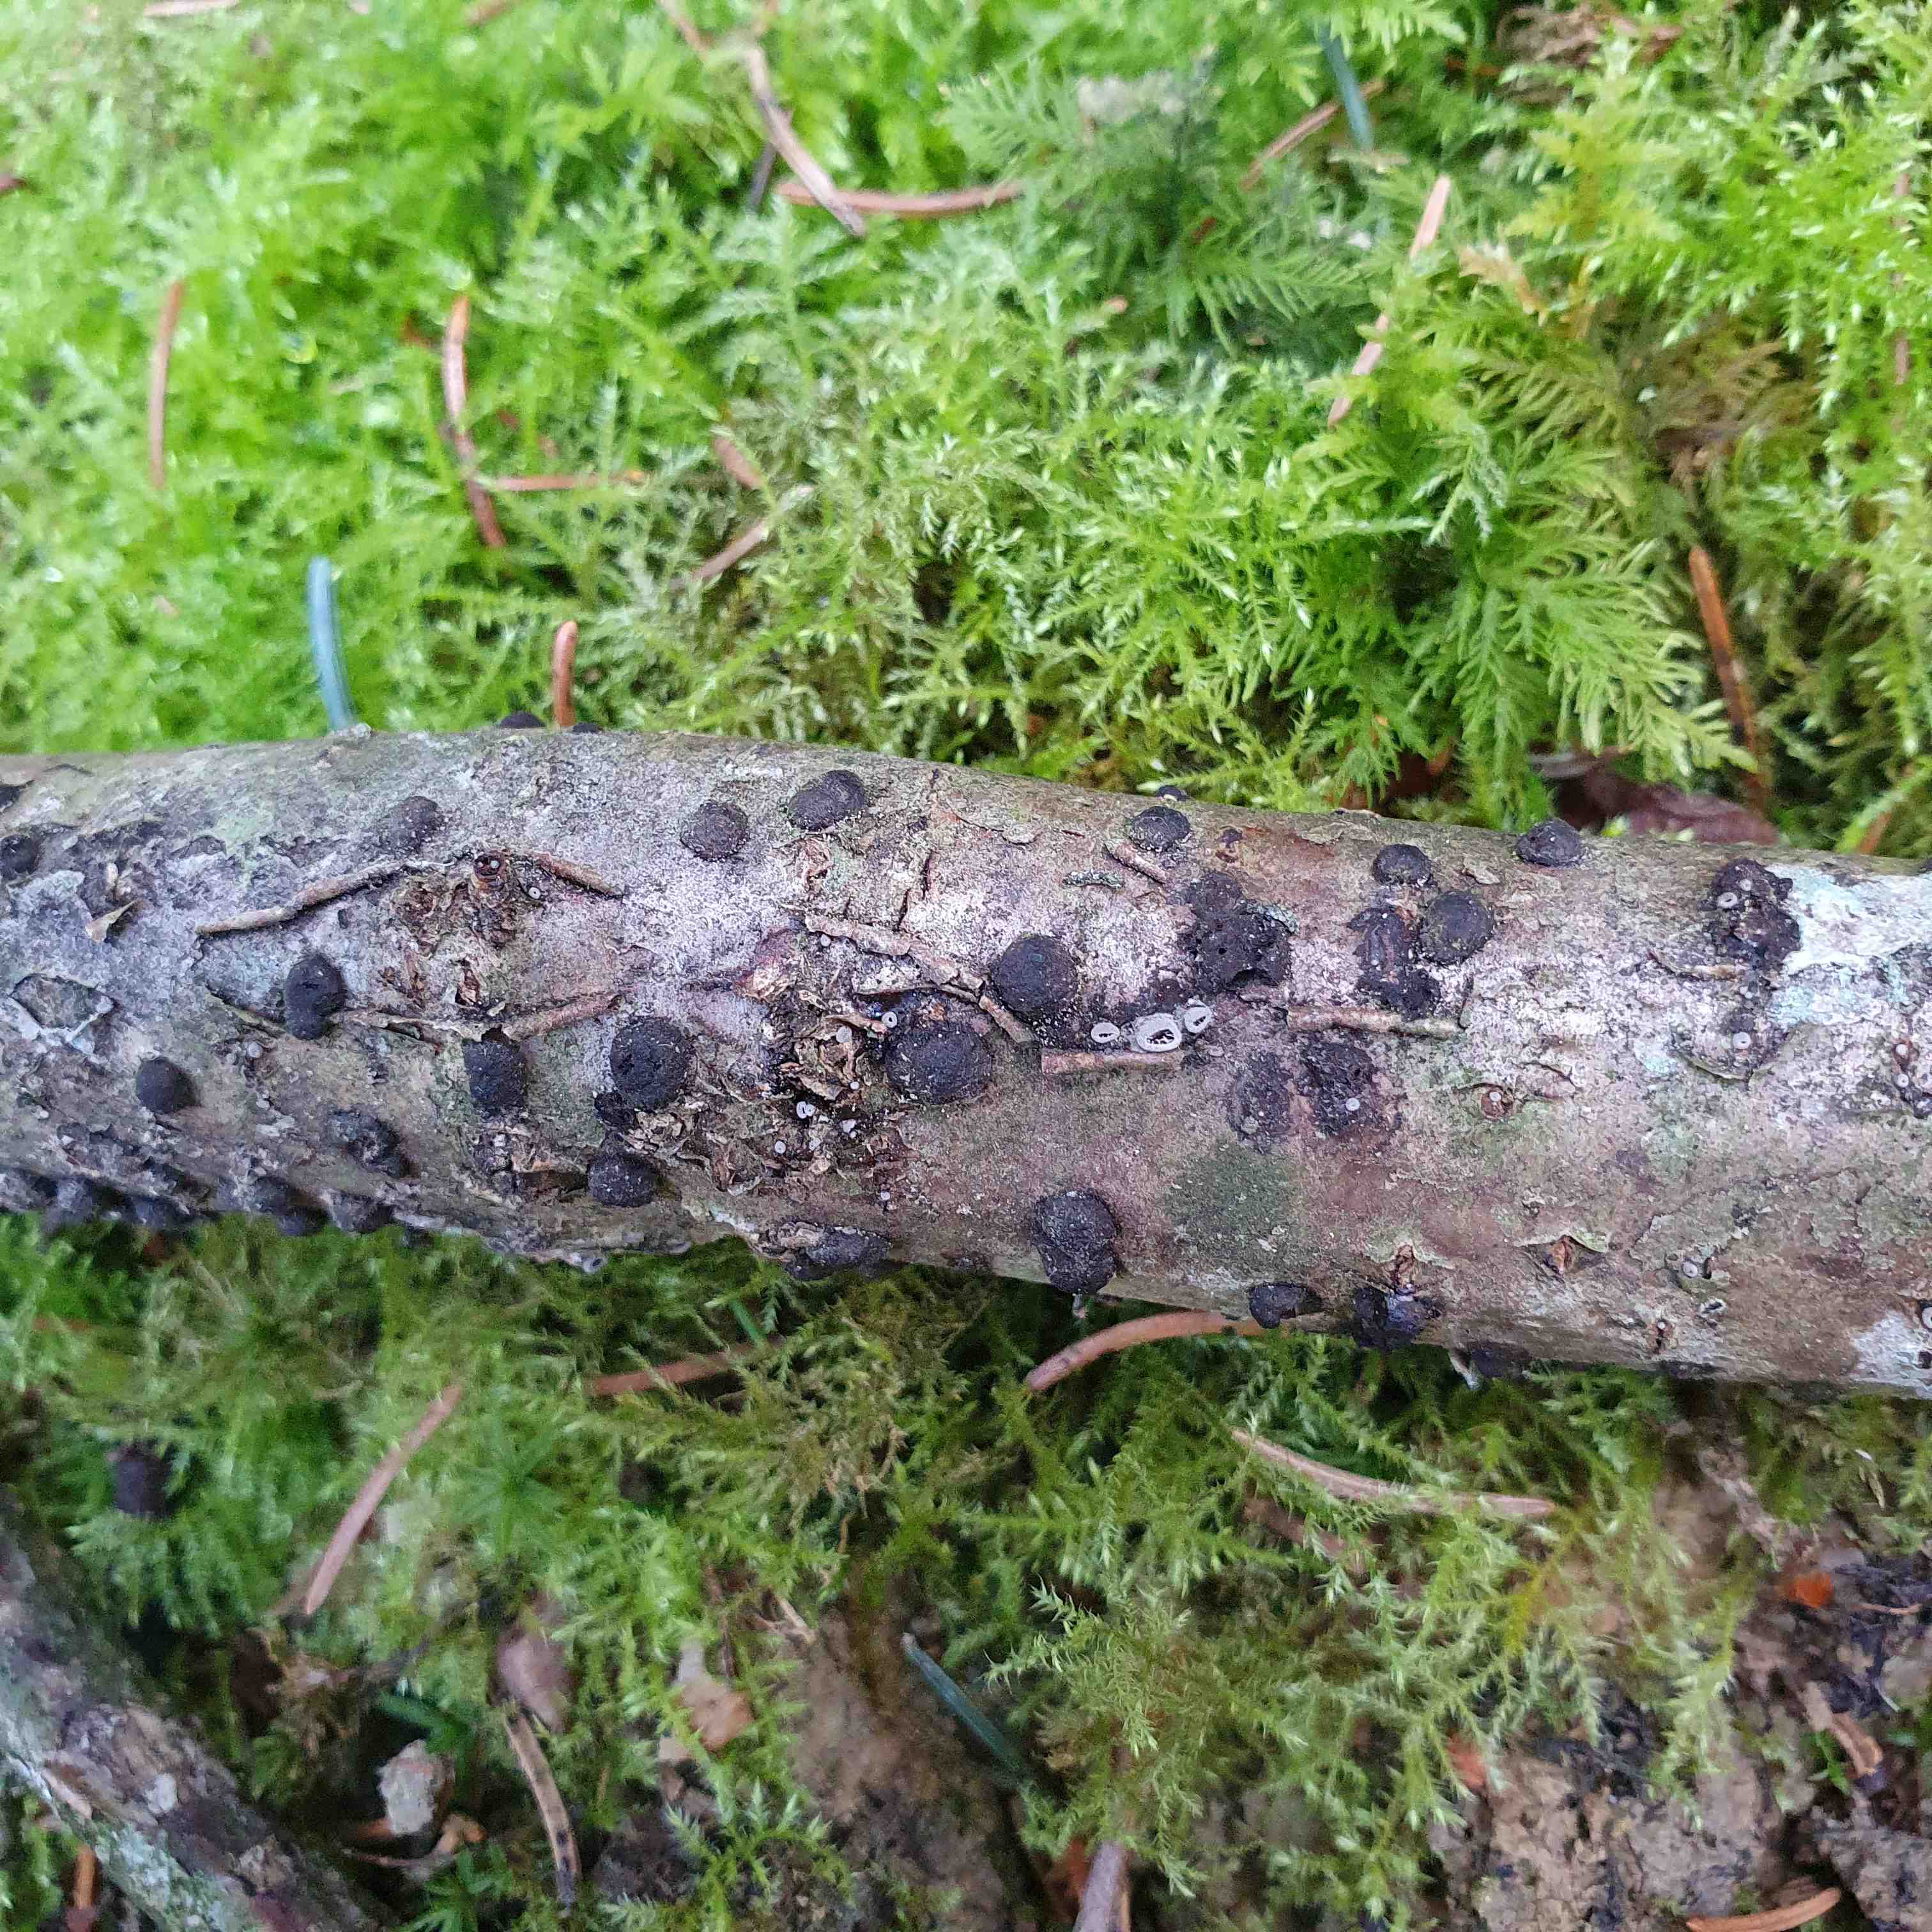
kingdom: Fungi
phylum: Ascomycota
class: Sordariomycetes
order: Xylariales
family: Hypoxylaceae
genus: Hypoxylon
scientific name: Hypoxylon fuscum
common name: kegleformet kulbær
